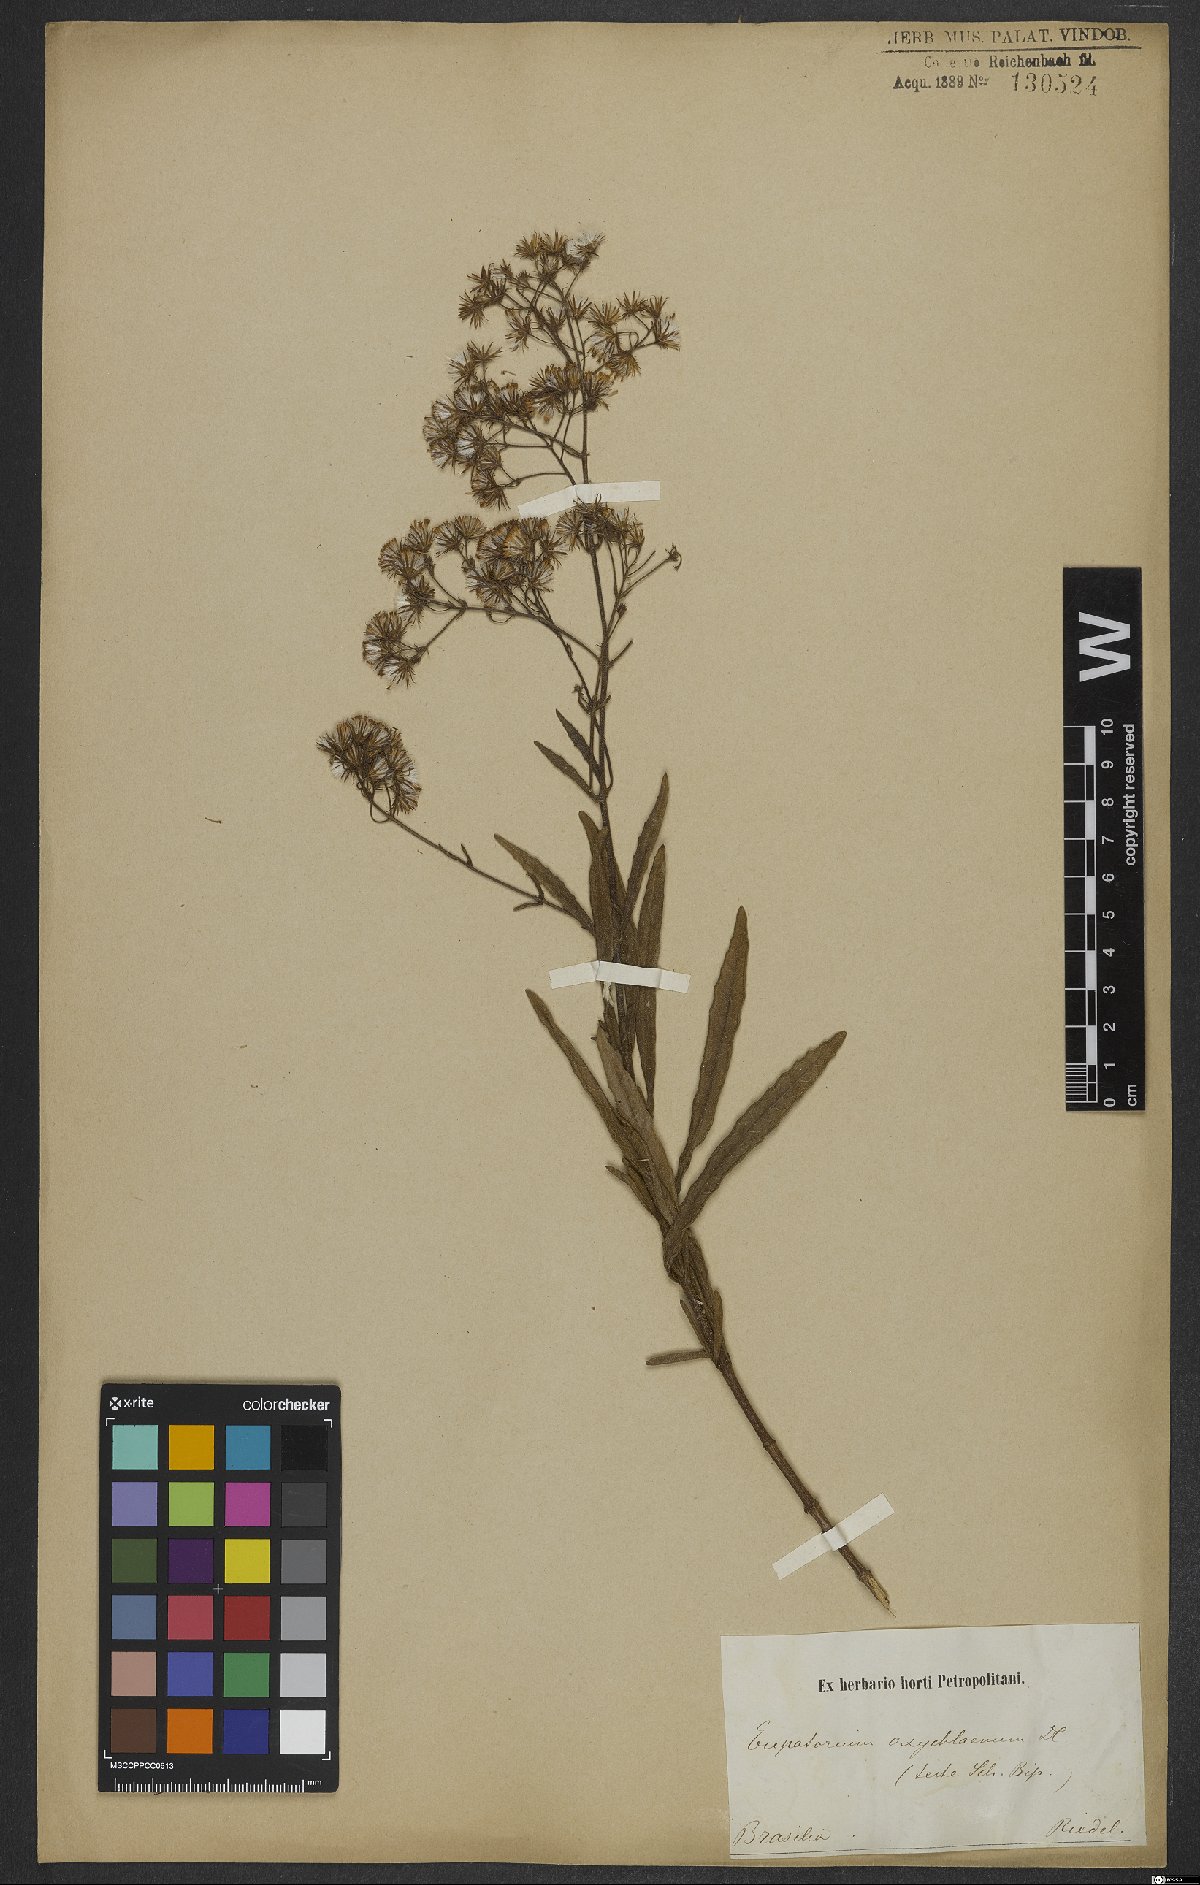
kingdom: Plantae
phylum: Tracheophyta
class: Magnoliopsida
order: Asterales
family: Asteraceae
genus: Ayapana
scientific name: Ayapana amygdalina
